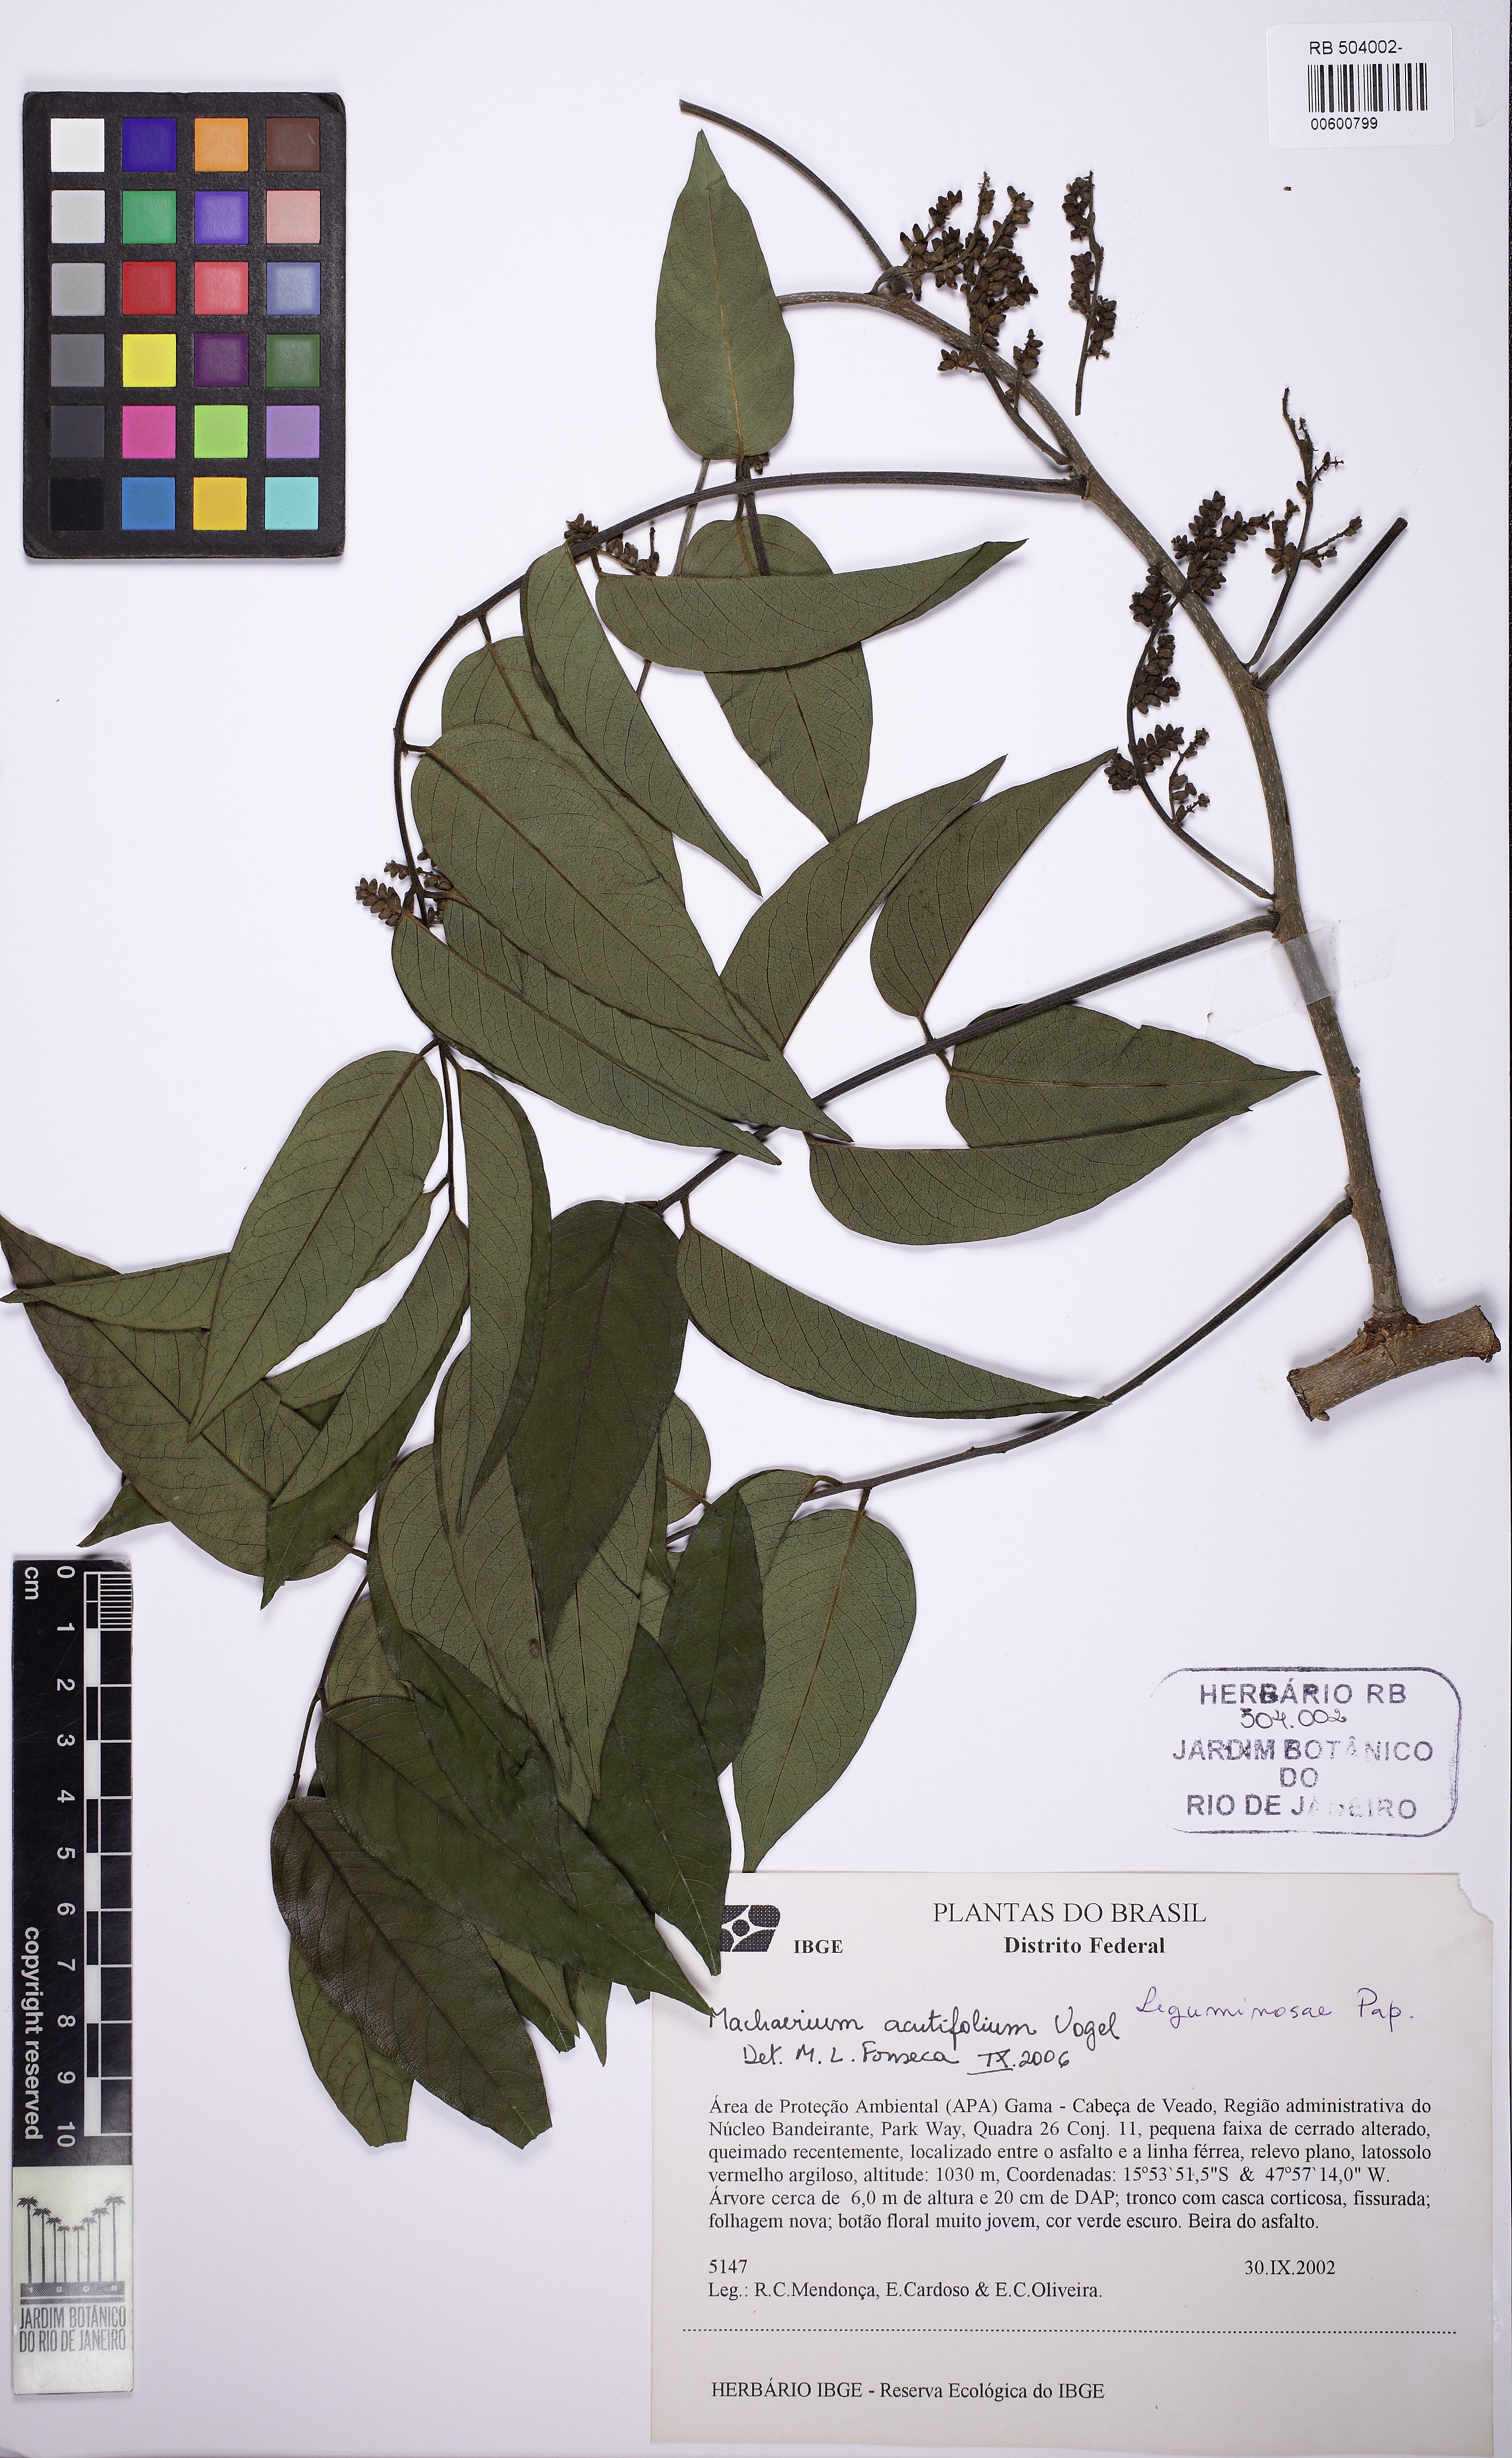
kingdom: Plantae
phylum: Tracheophyta
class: Magnoliopsida
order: Fabales
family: Fabaceae
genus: Machaerium
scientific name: Machaerium acutifolium
